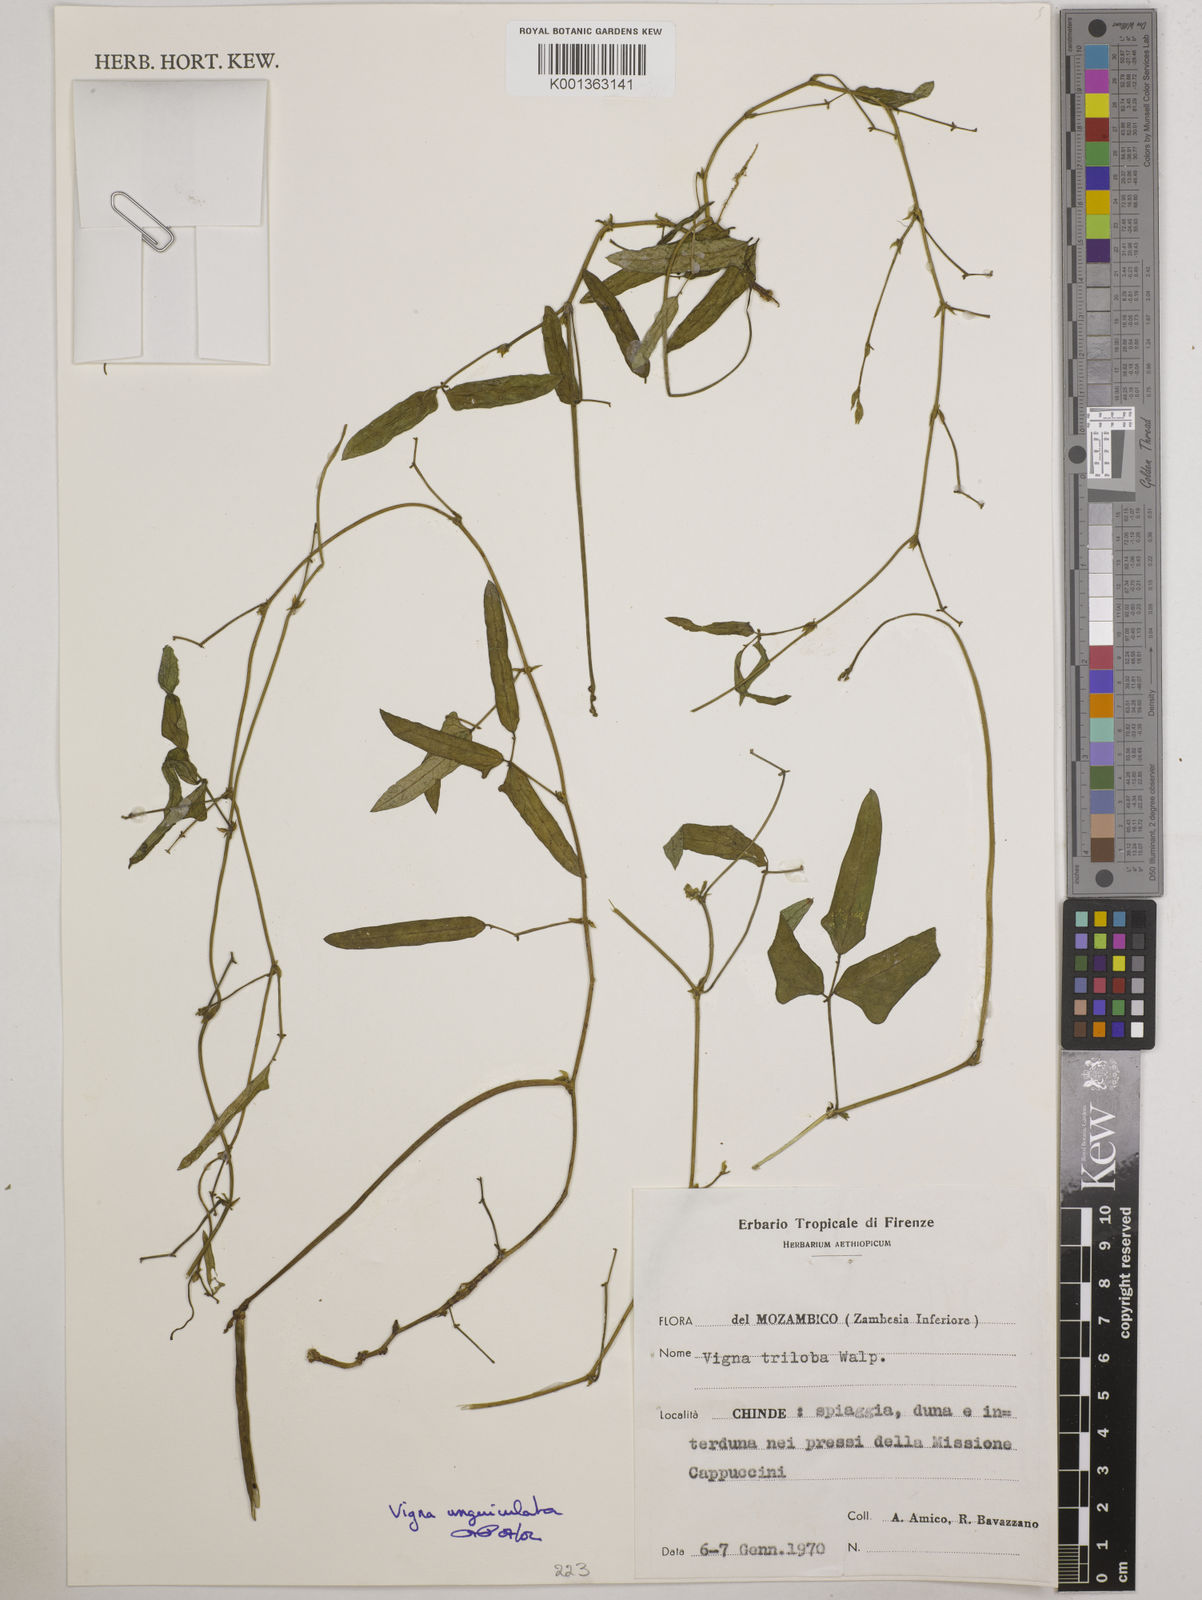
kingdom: Plantae
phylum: Tracheophyta
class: Magnoliopsida
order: Fabales
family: Fabaceae
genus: Vigna
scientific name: Vigna unguiculata
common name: Cowpea
